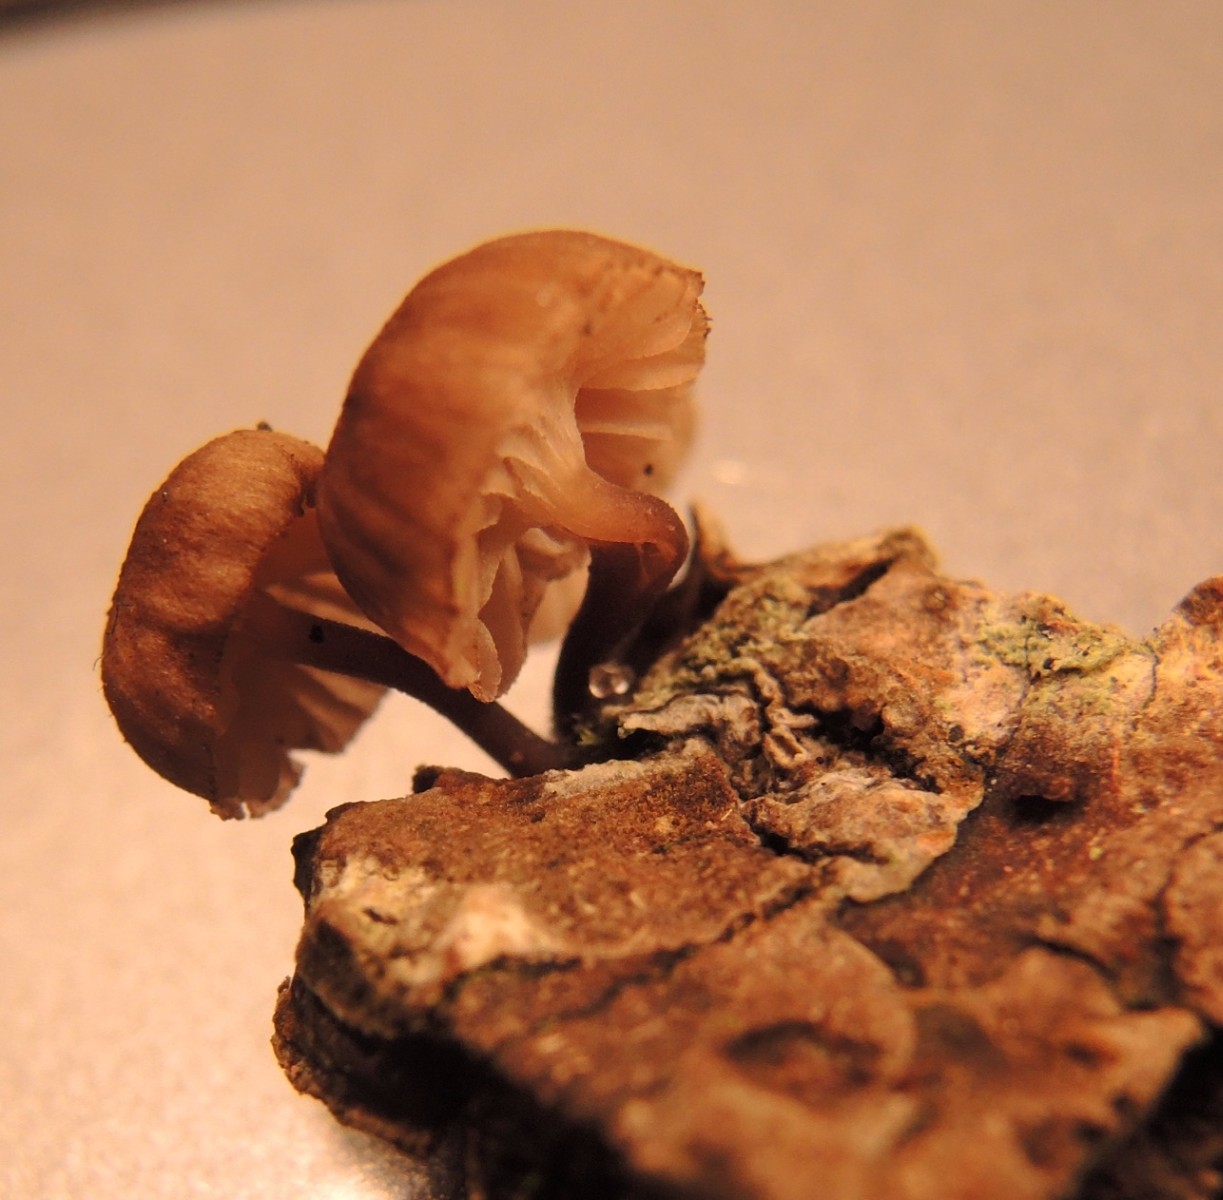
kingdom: Fungi
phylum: Basidiomycota
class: Agaricomycetes
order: Agaricales
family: Mycenaceae
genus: Mycena
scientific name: Mycena meliigena
